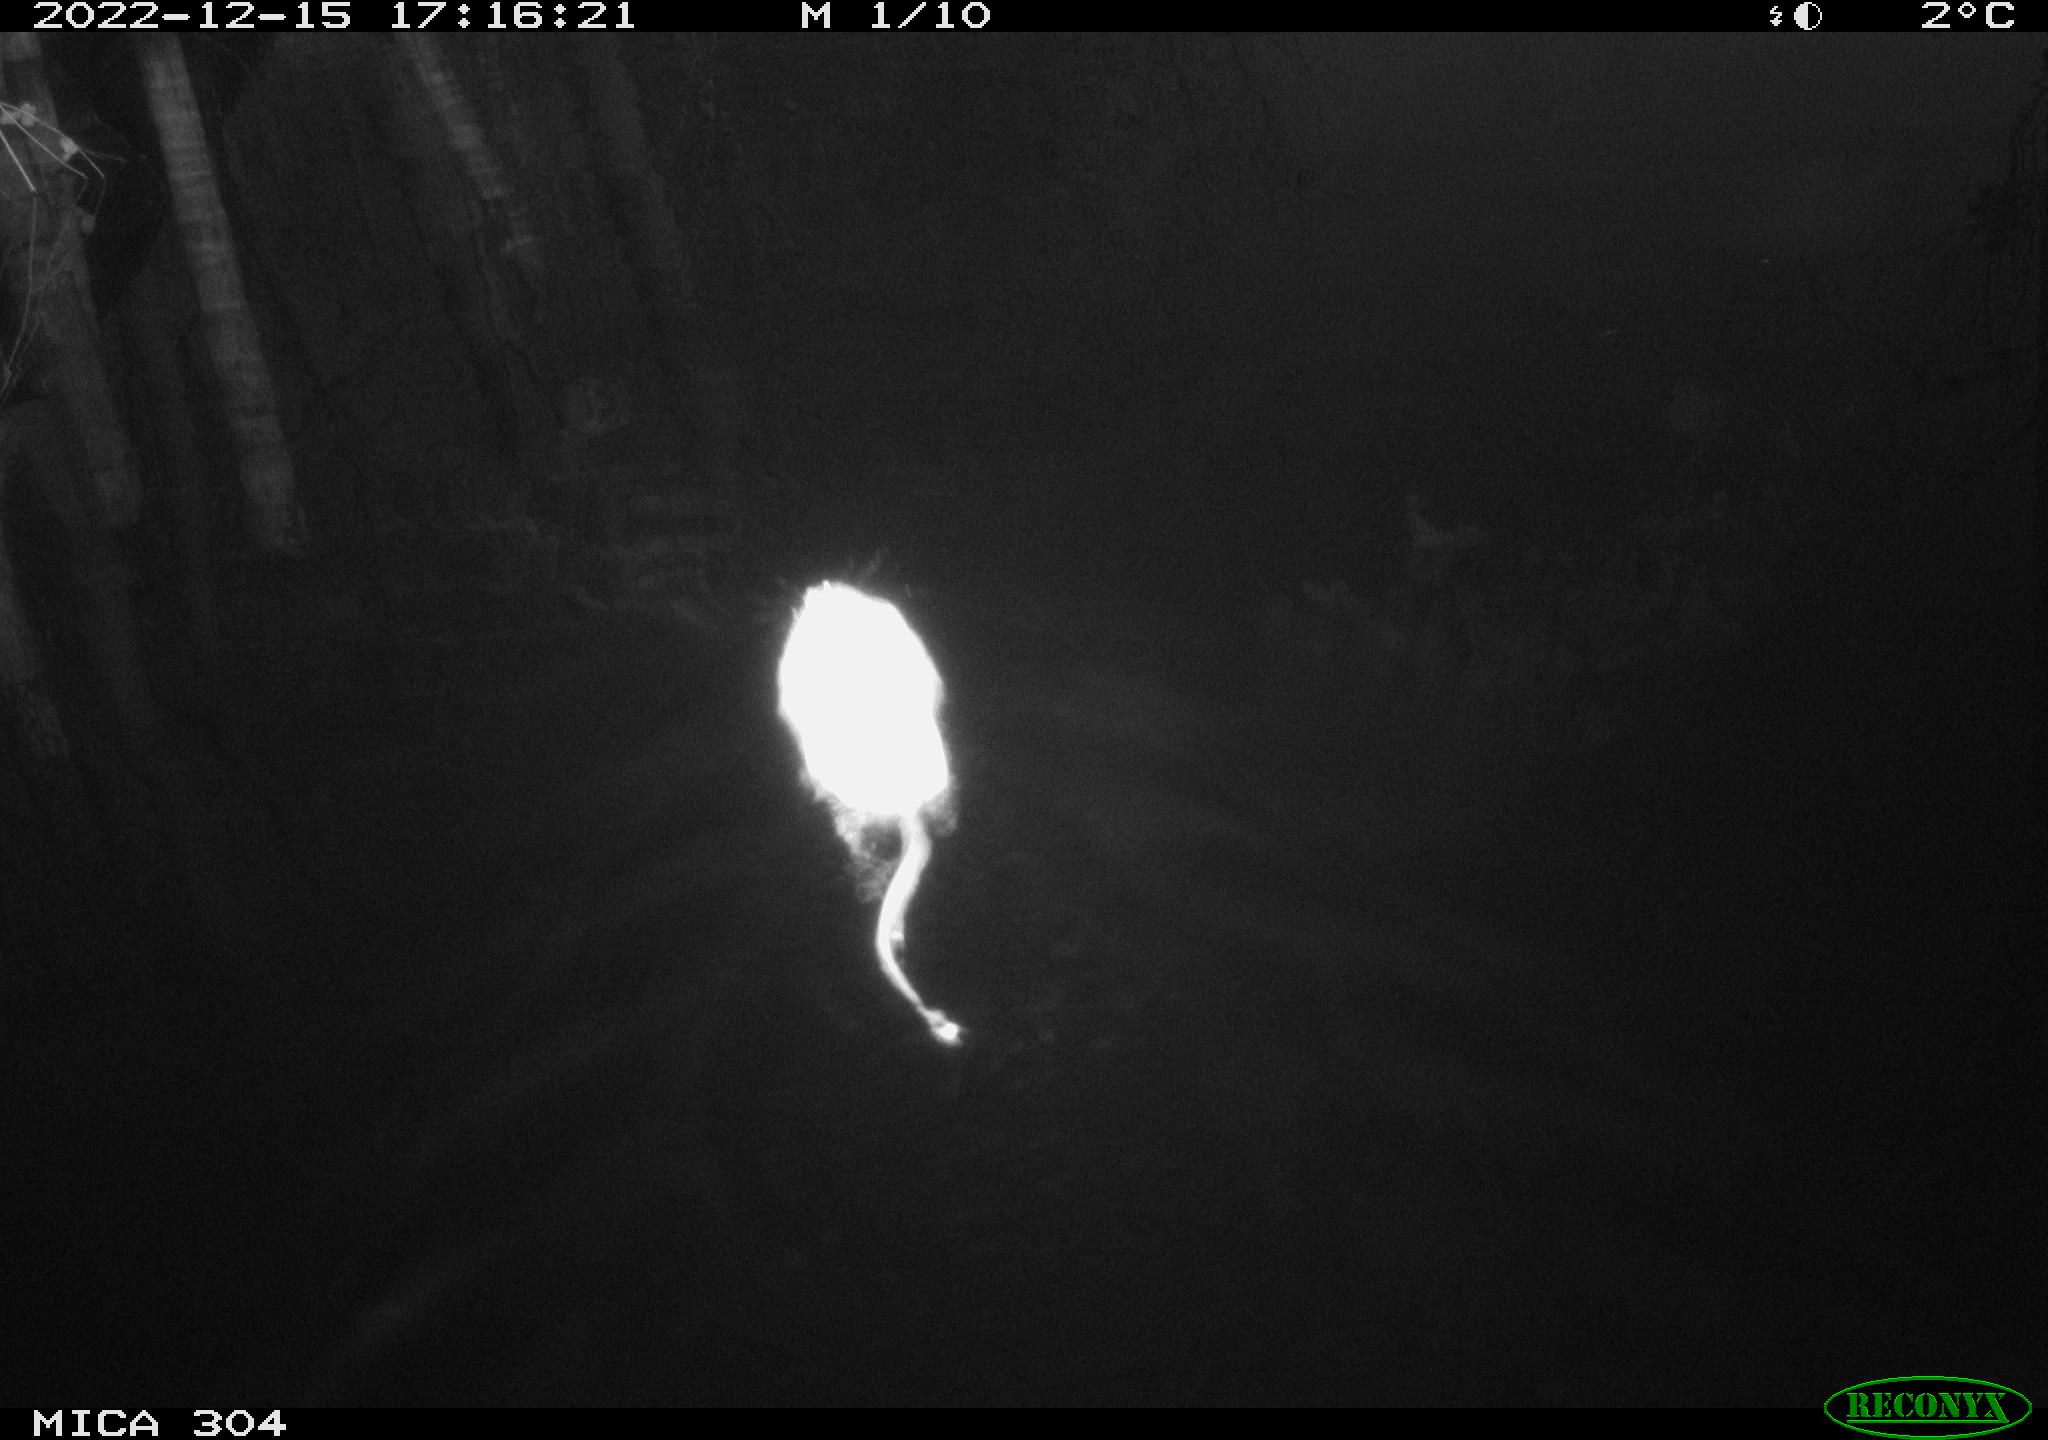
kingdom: Animalia
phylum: Chordata
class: Mammalia
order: Rodentia
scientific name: Rodentia
